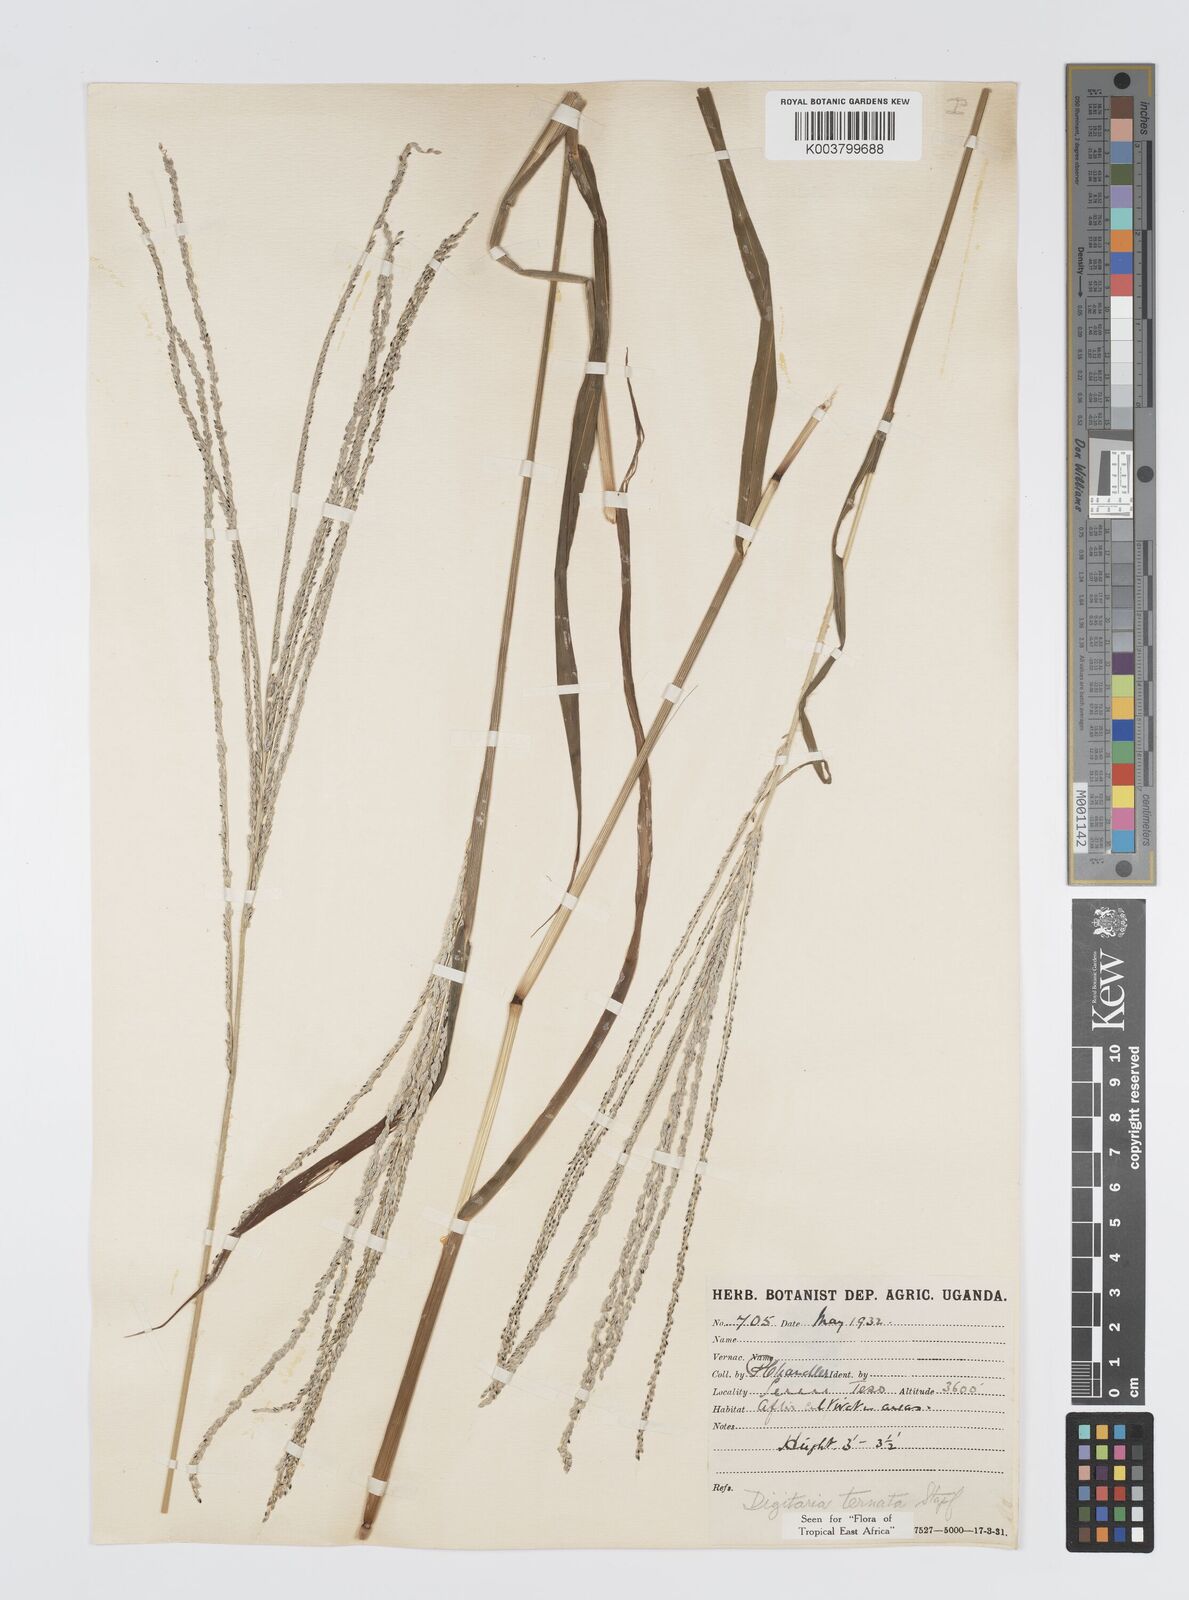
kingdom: Plantae
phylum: Tracheophyta
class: Liliopsida
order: Poales
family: Poaceae
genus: Digitaria
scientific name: Digitaria ternata
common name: Blackseed crabgrass
